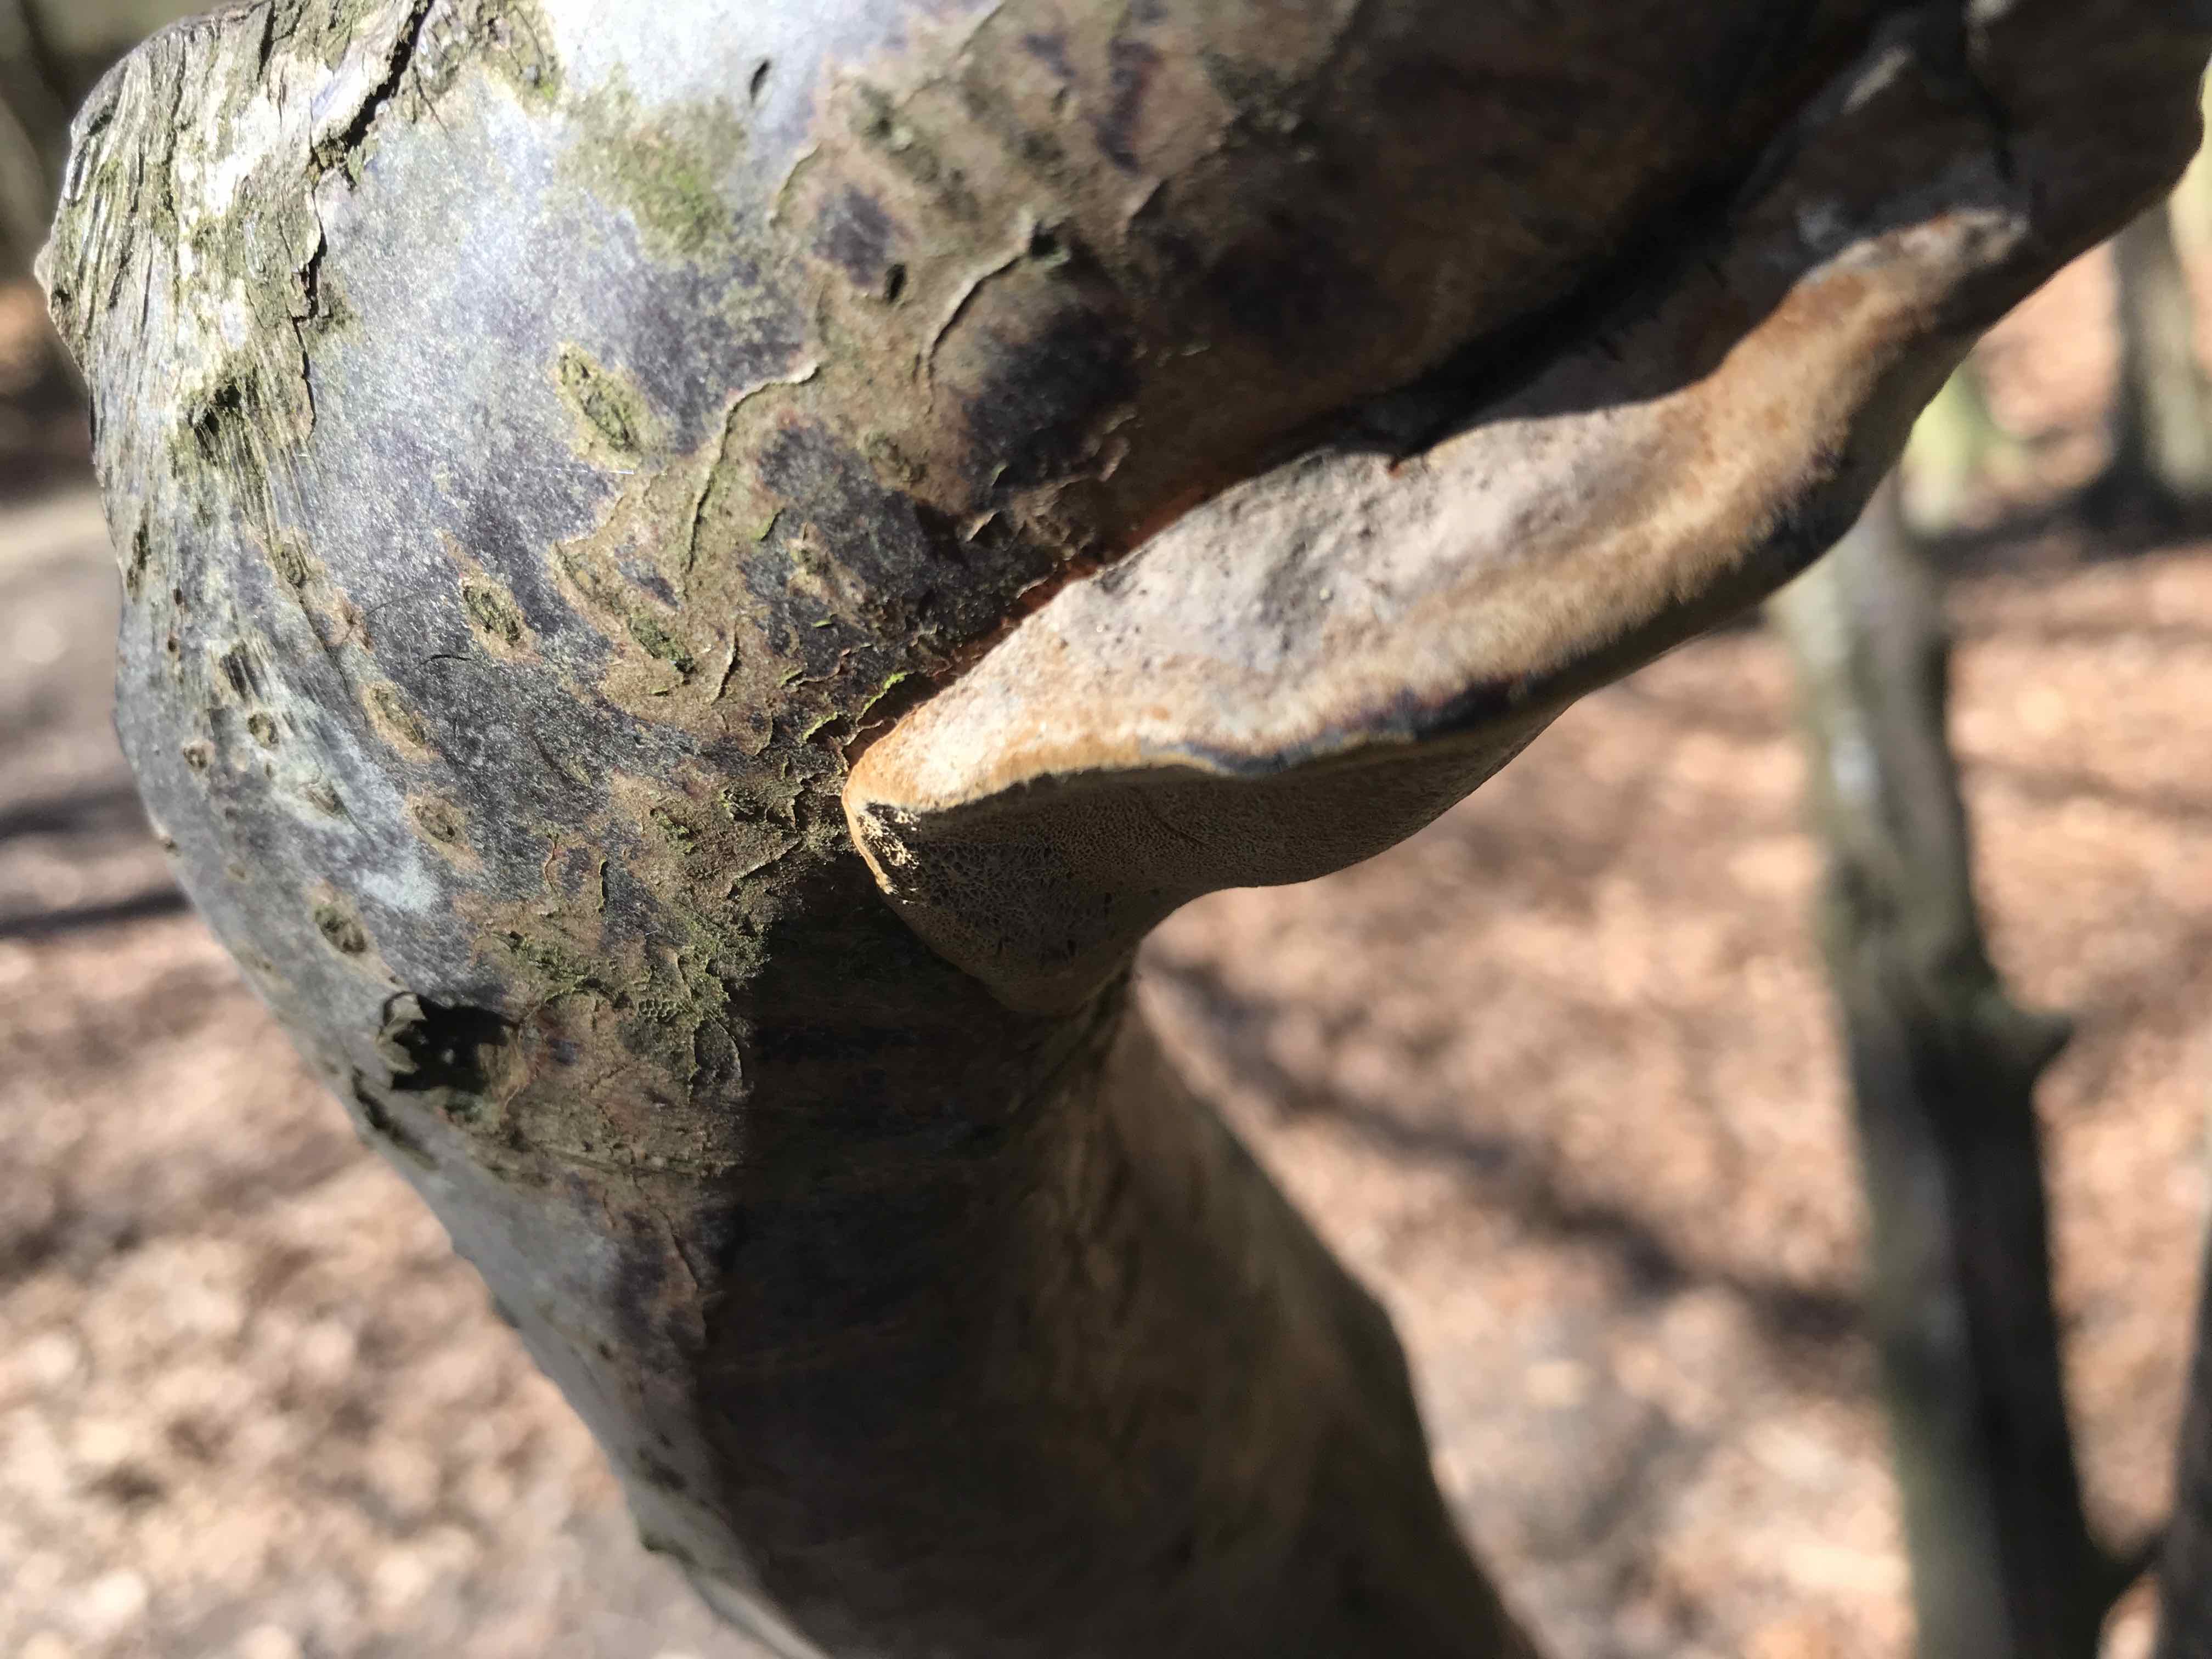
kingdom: Fungi
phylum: Basidiomycota
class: Agaricomycetes
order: Hymenochaetales
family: Hymenochaetaceae
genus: Phellinus
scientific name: Phellinus pomaceus
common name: blomme-ildporesvamp
